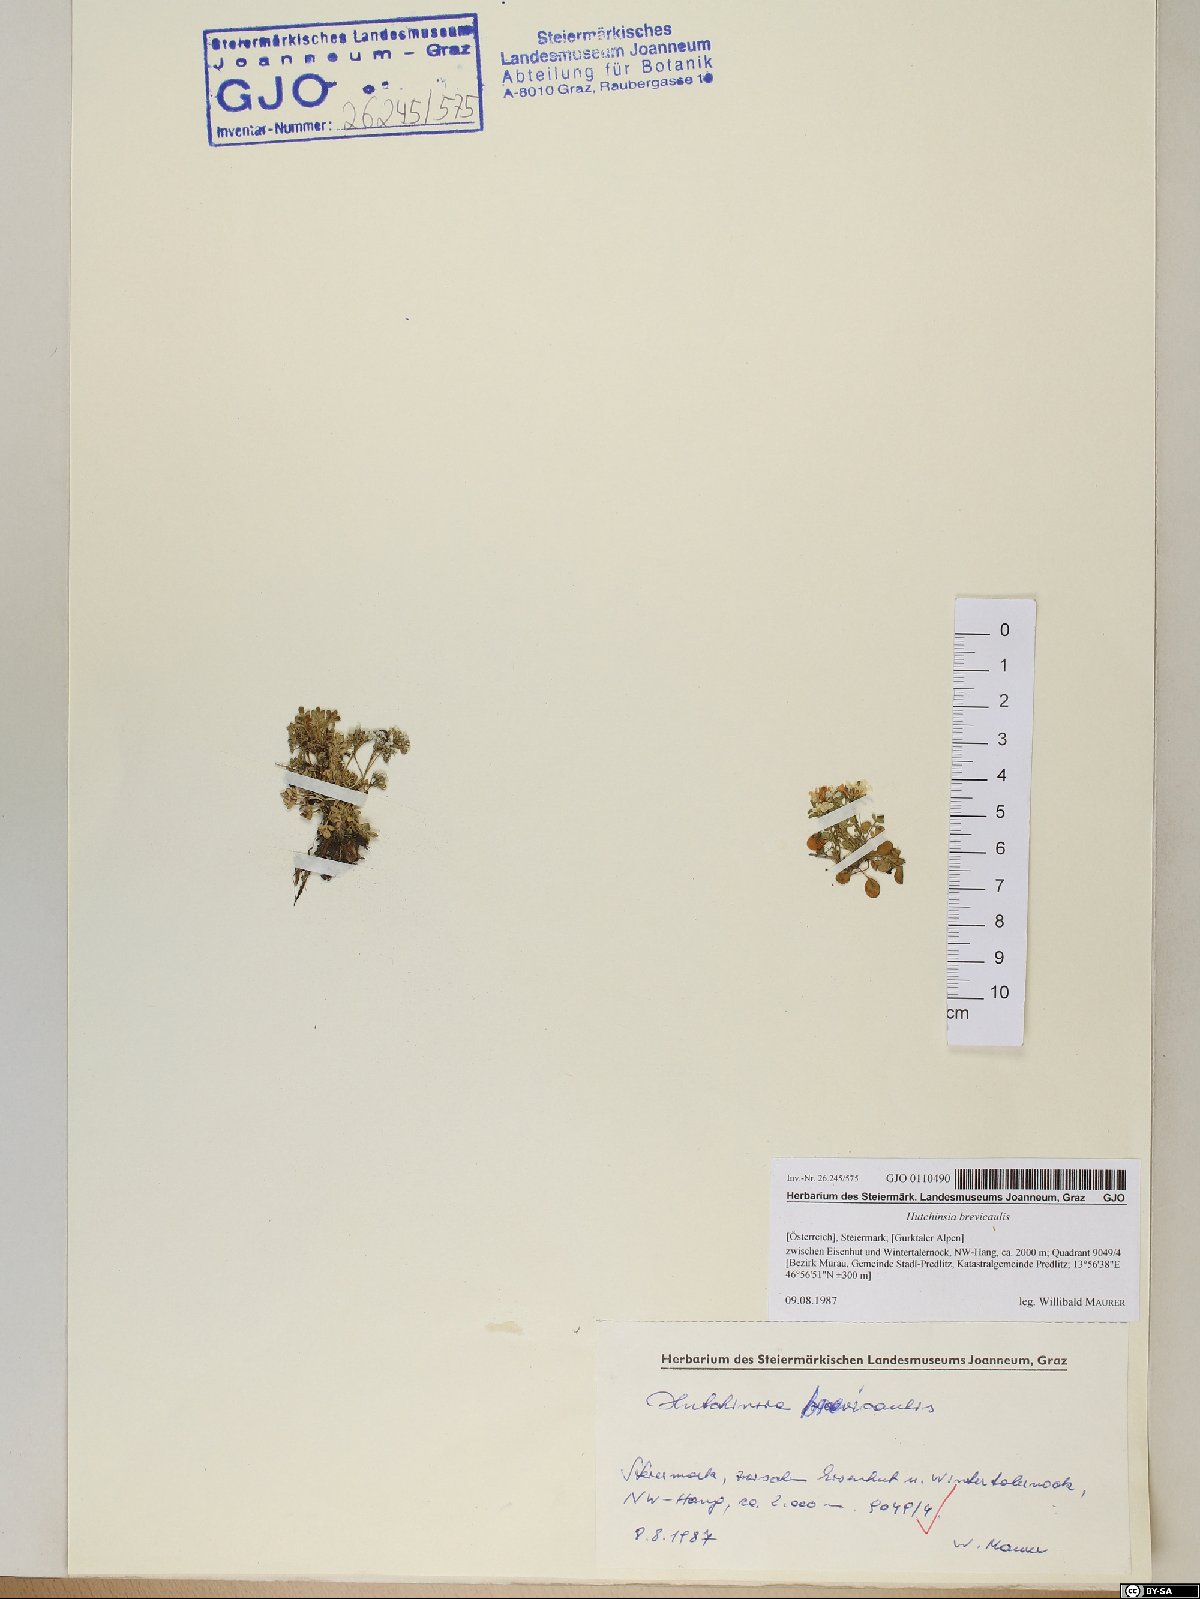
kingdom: Plantae
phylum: Tracheophyta
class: Magnoliopsida
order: Brassicales
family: Brassicaceae
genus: Hornungia
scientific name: Hornungia alpina
